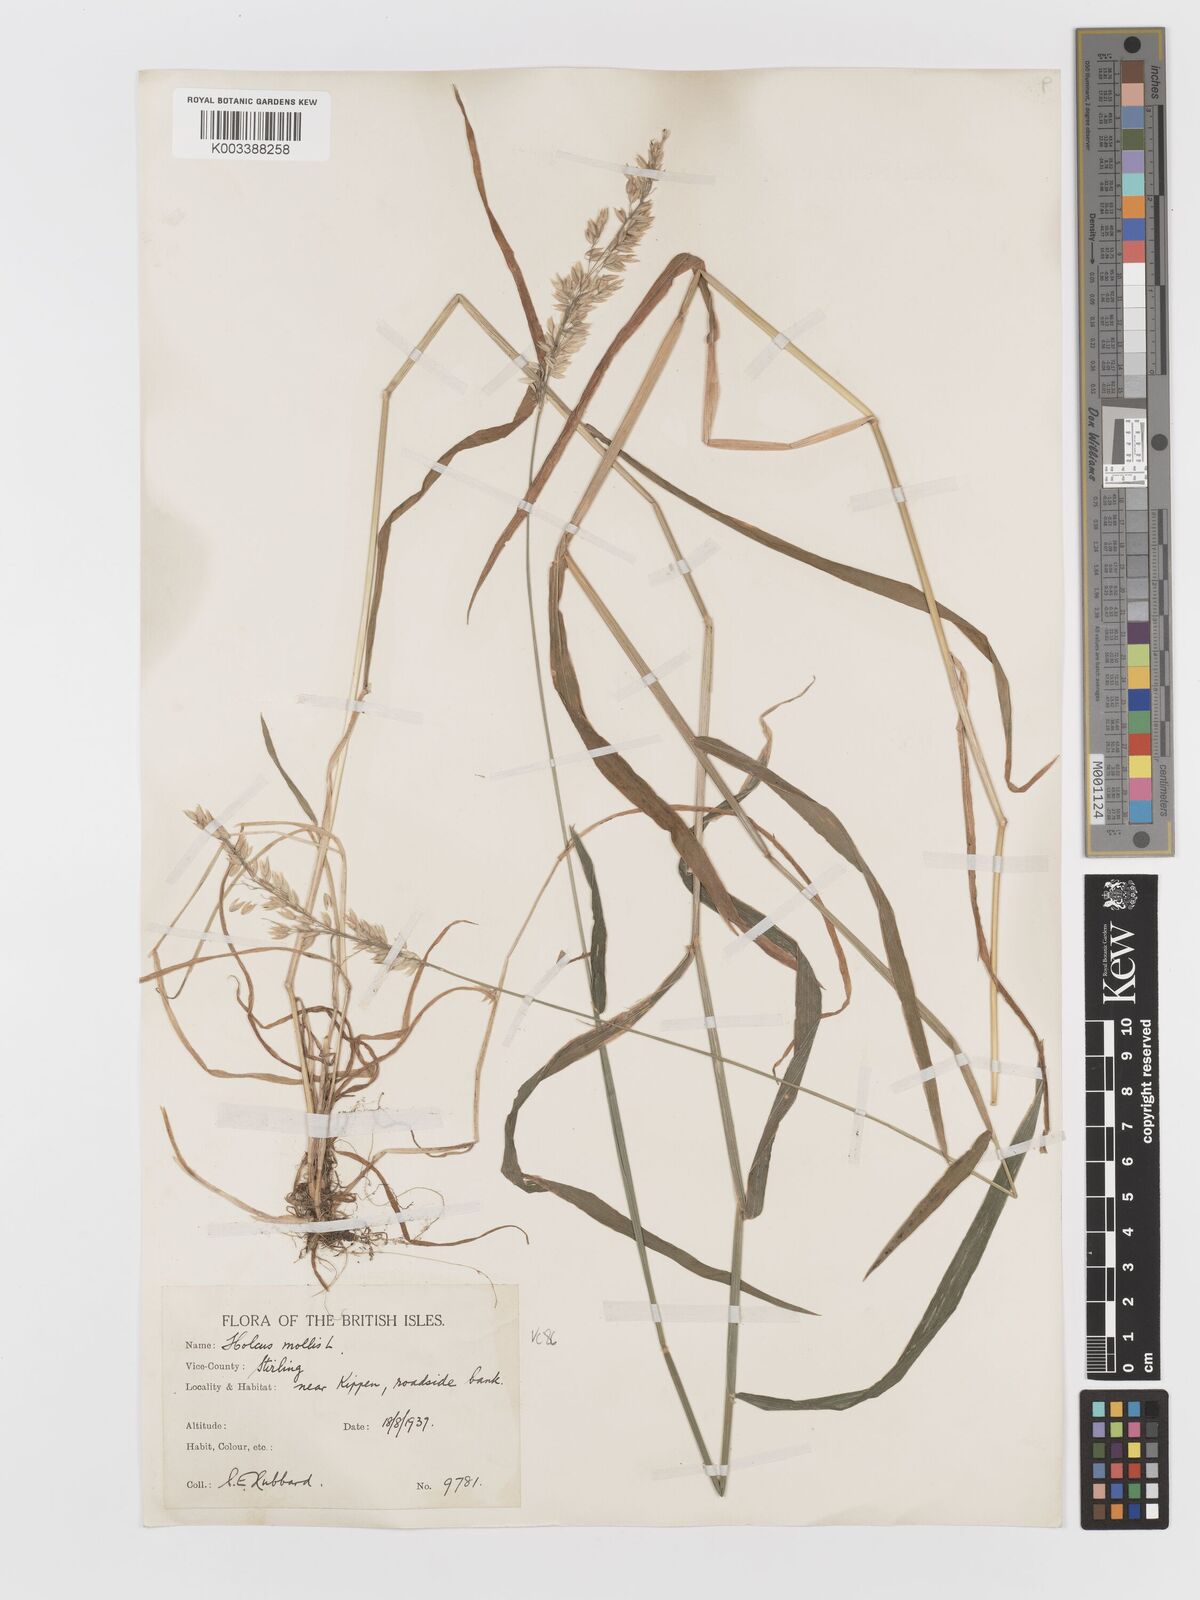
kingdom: Plantae
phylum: Tracheophyta
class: Liliopsida
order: Poales
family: Poaceae
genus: Holcus
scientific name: Holcus mollis
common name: Creeping velvetgrass
